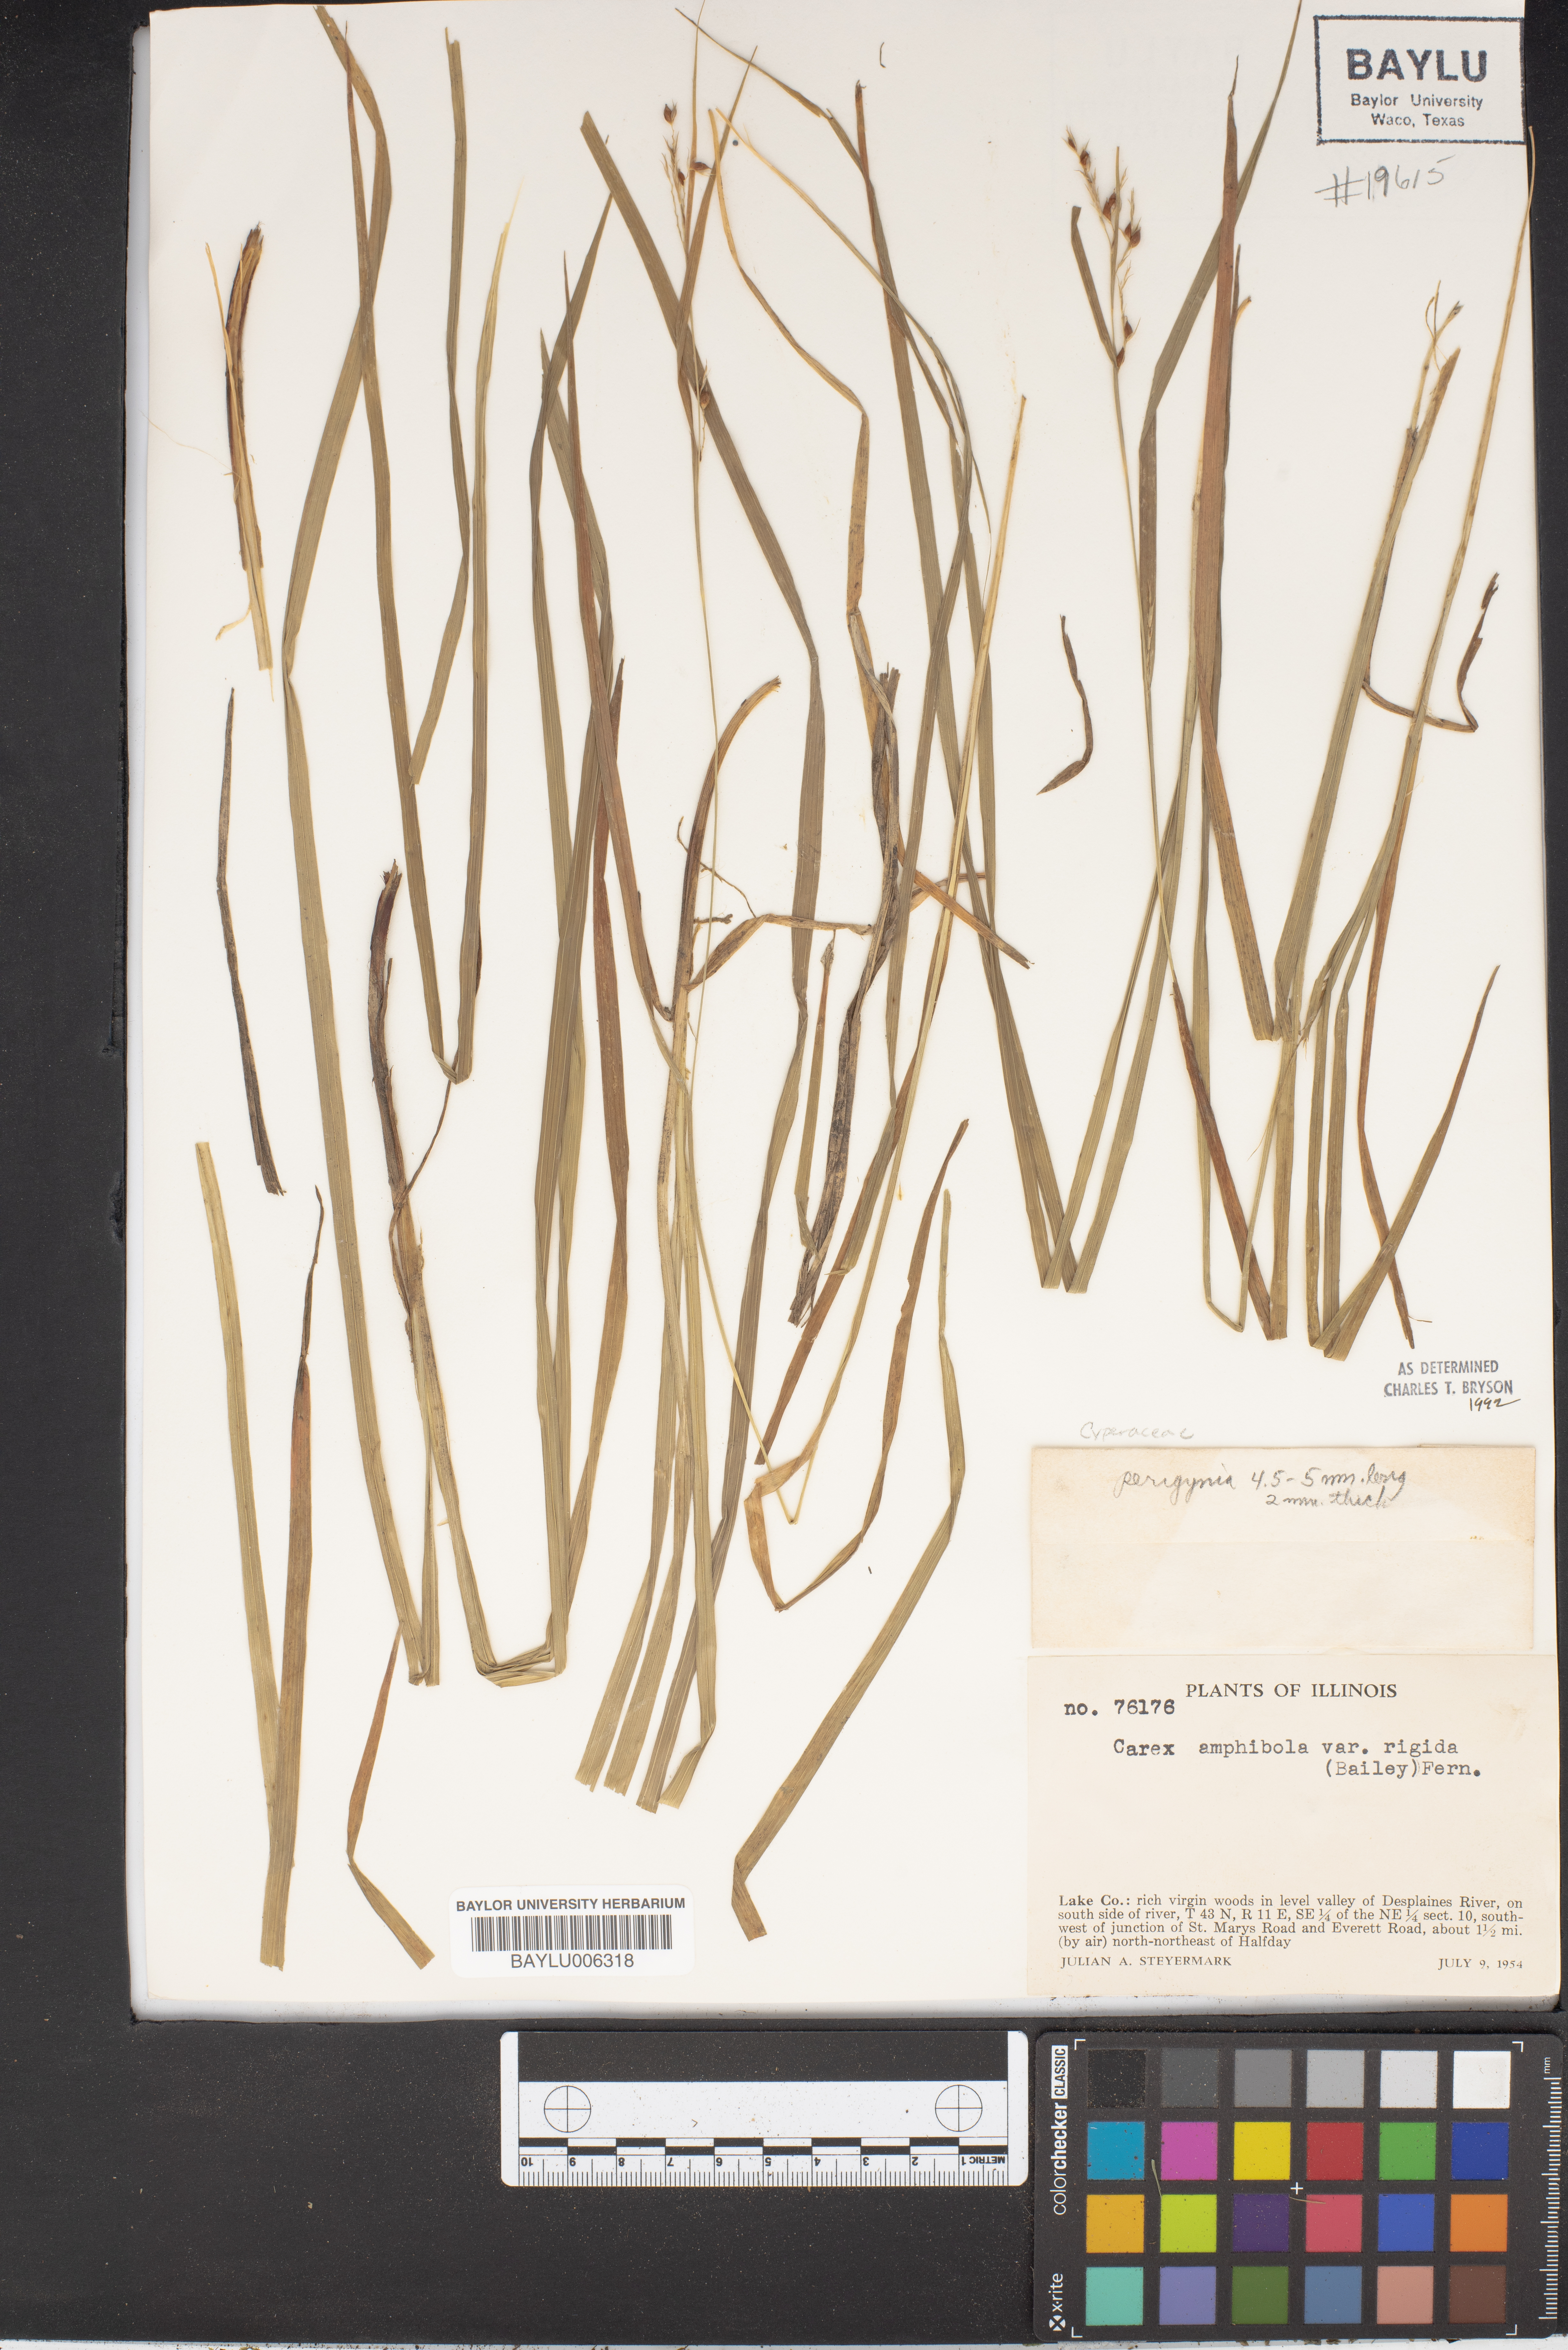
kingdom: Plantae
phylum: Tracheophyta
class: Liliopsida
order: Poales
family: Cyperaceae
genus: Carex
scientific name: Carex planispicata
